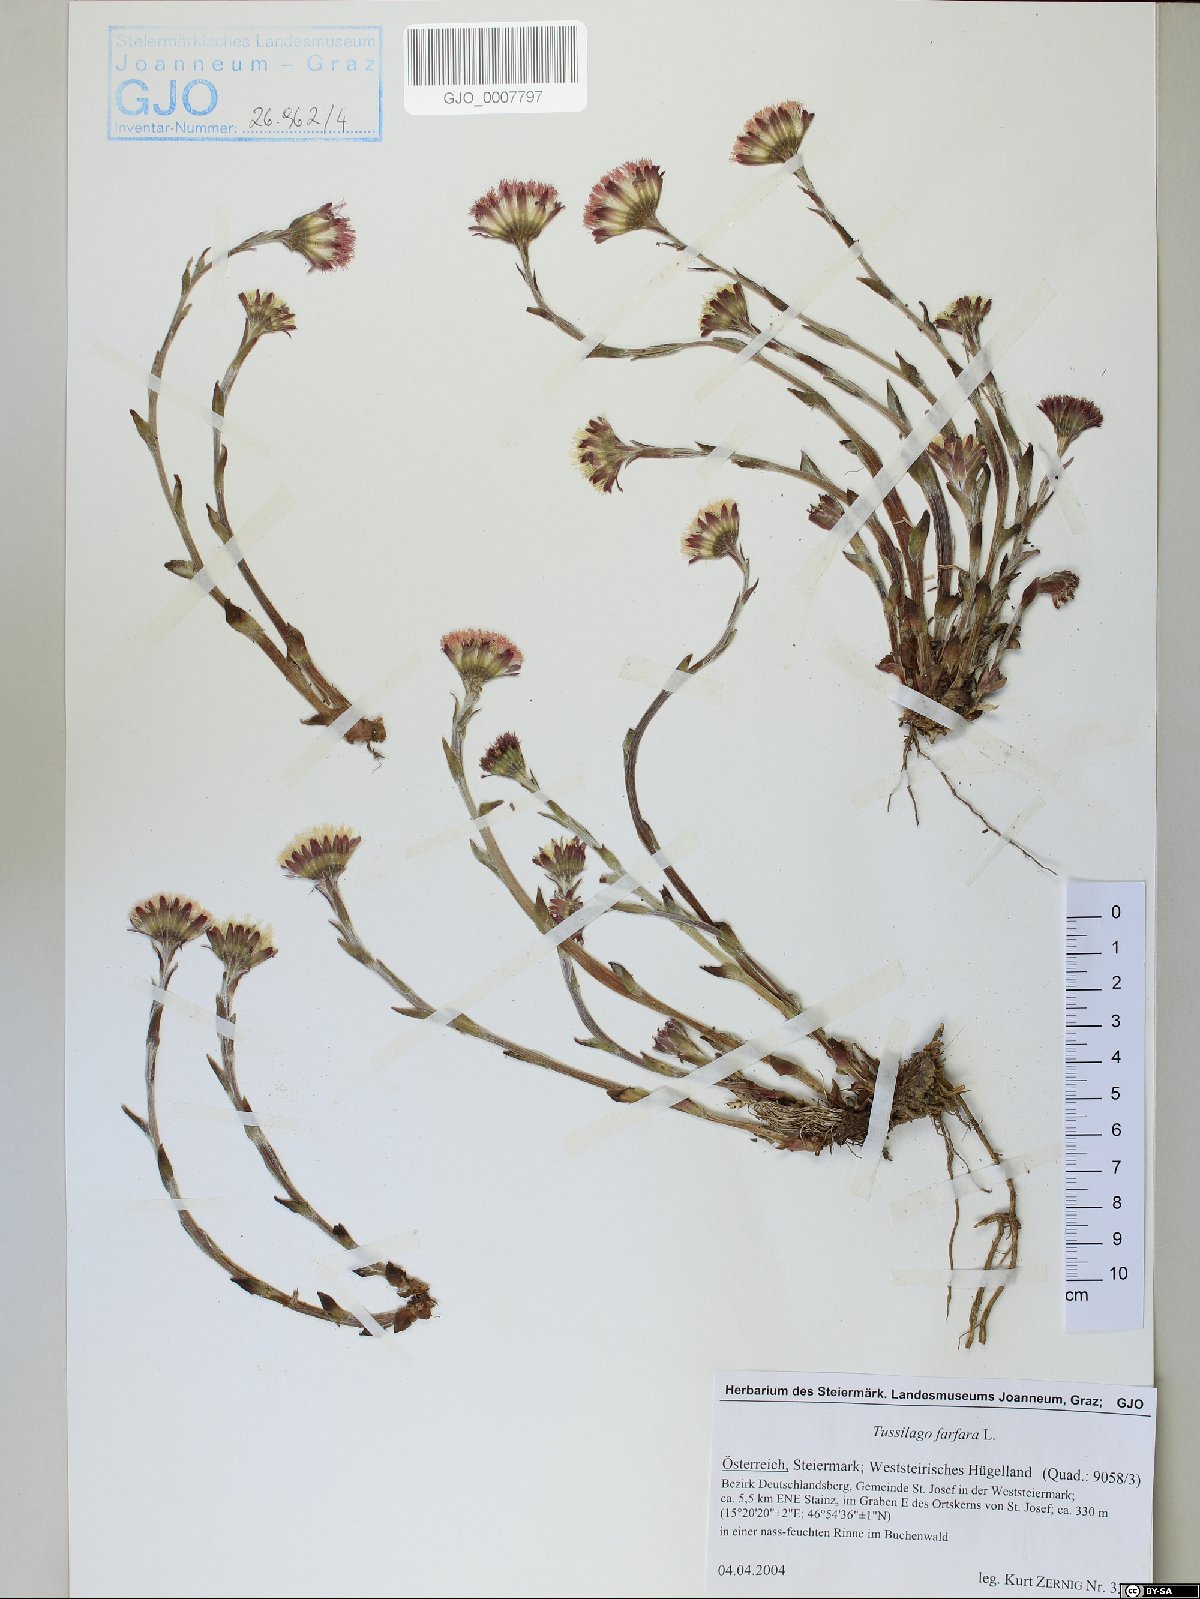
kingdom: Plantae
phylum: Tracheophyta
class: Magnoliopsida
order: Asterales
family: Asteraceae
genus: Tussilago
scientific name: Tussilago farfara
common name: Coltsfoot
